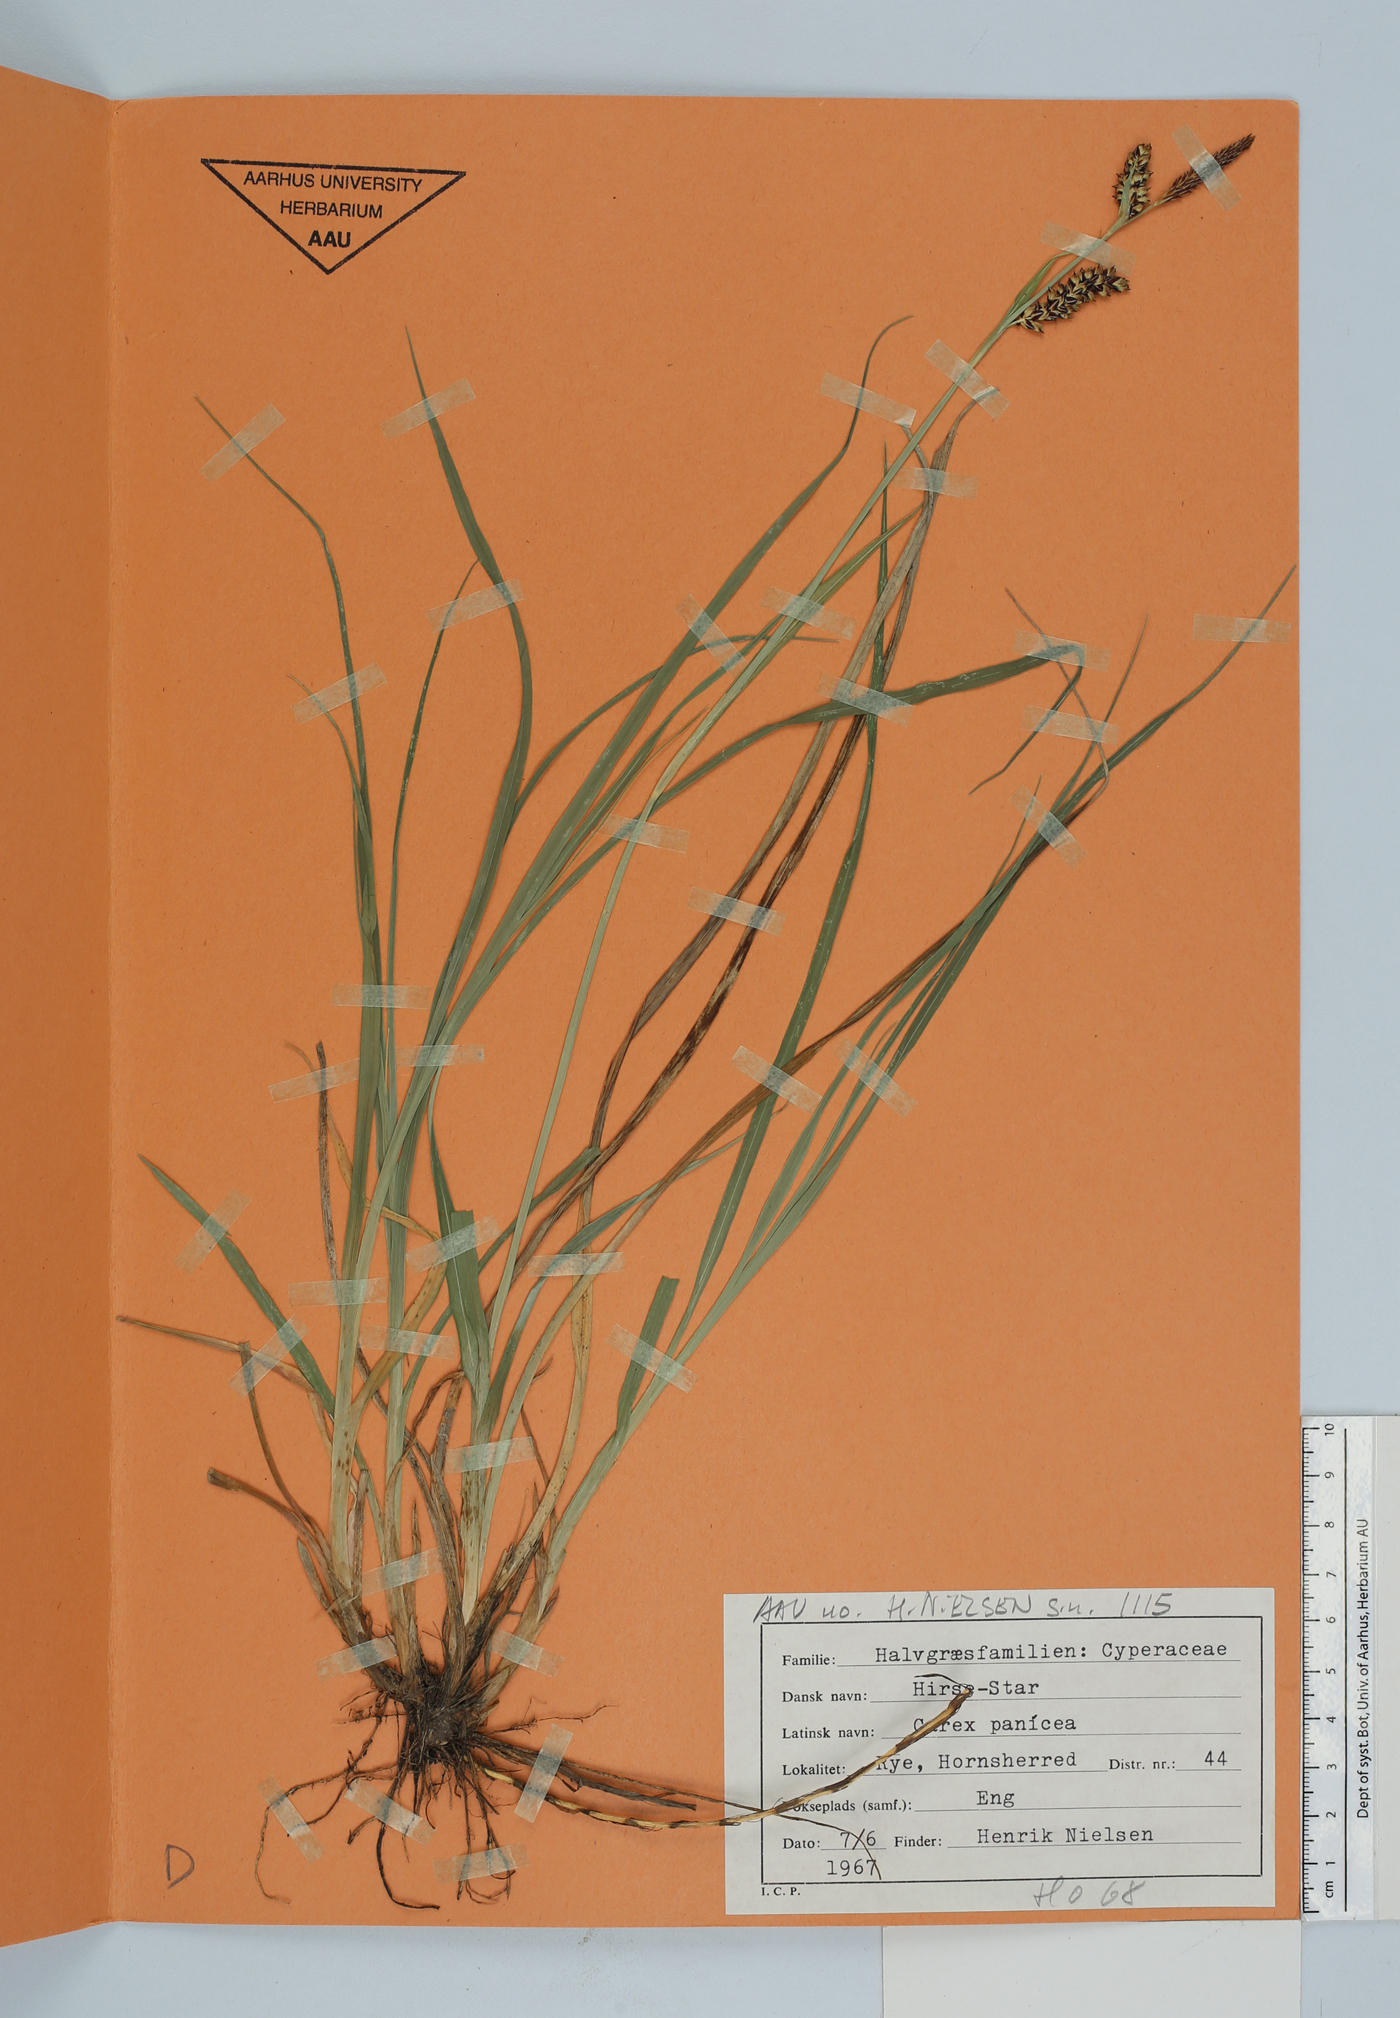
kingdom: Plantae
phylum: Tracheophyta
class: Liliopsida
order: Poales
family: Cyperaceae
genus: Carex
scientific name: Carex panicea
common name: Carnation sedge
